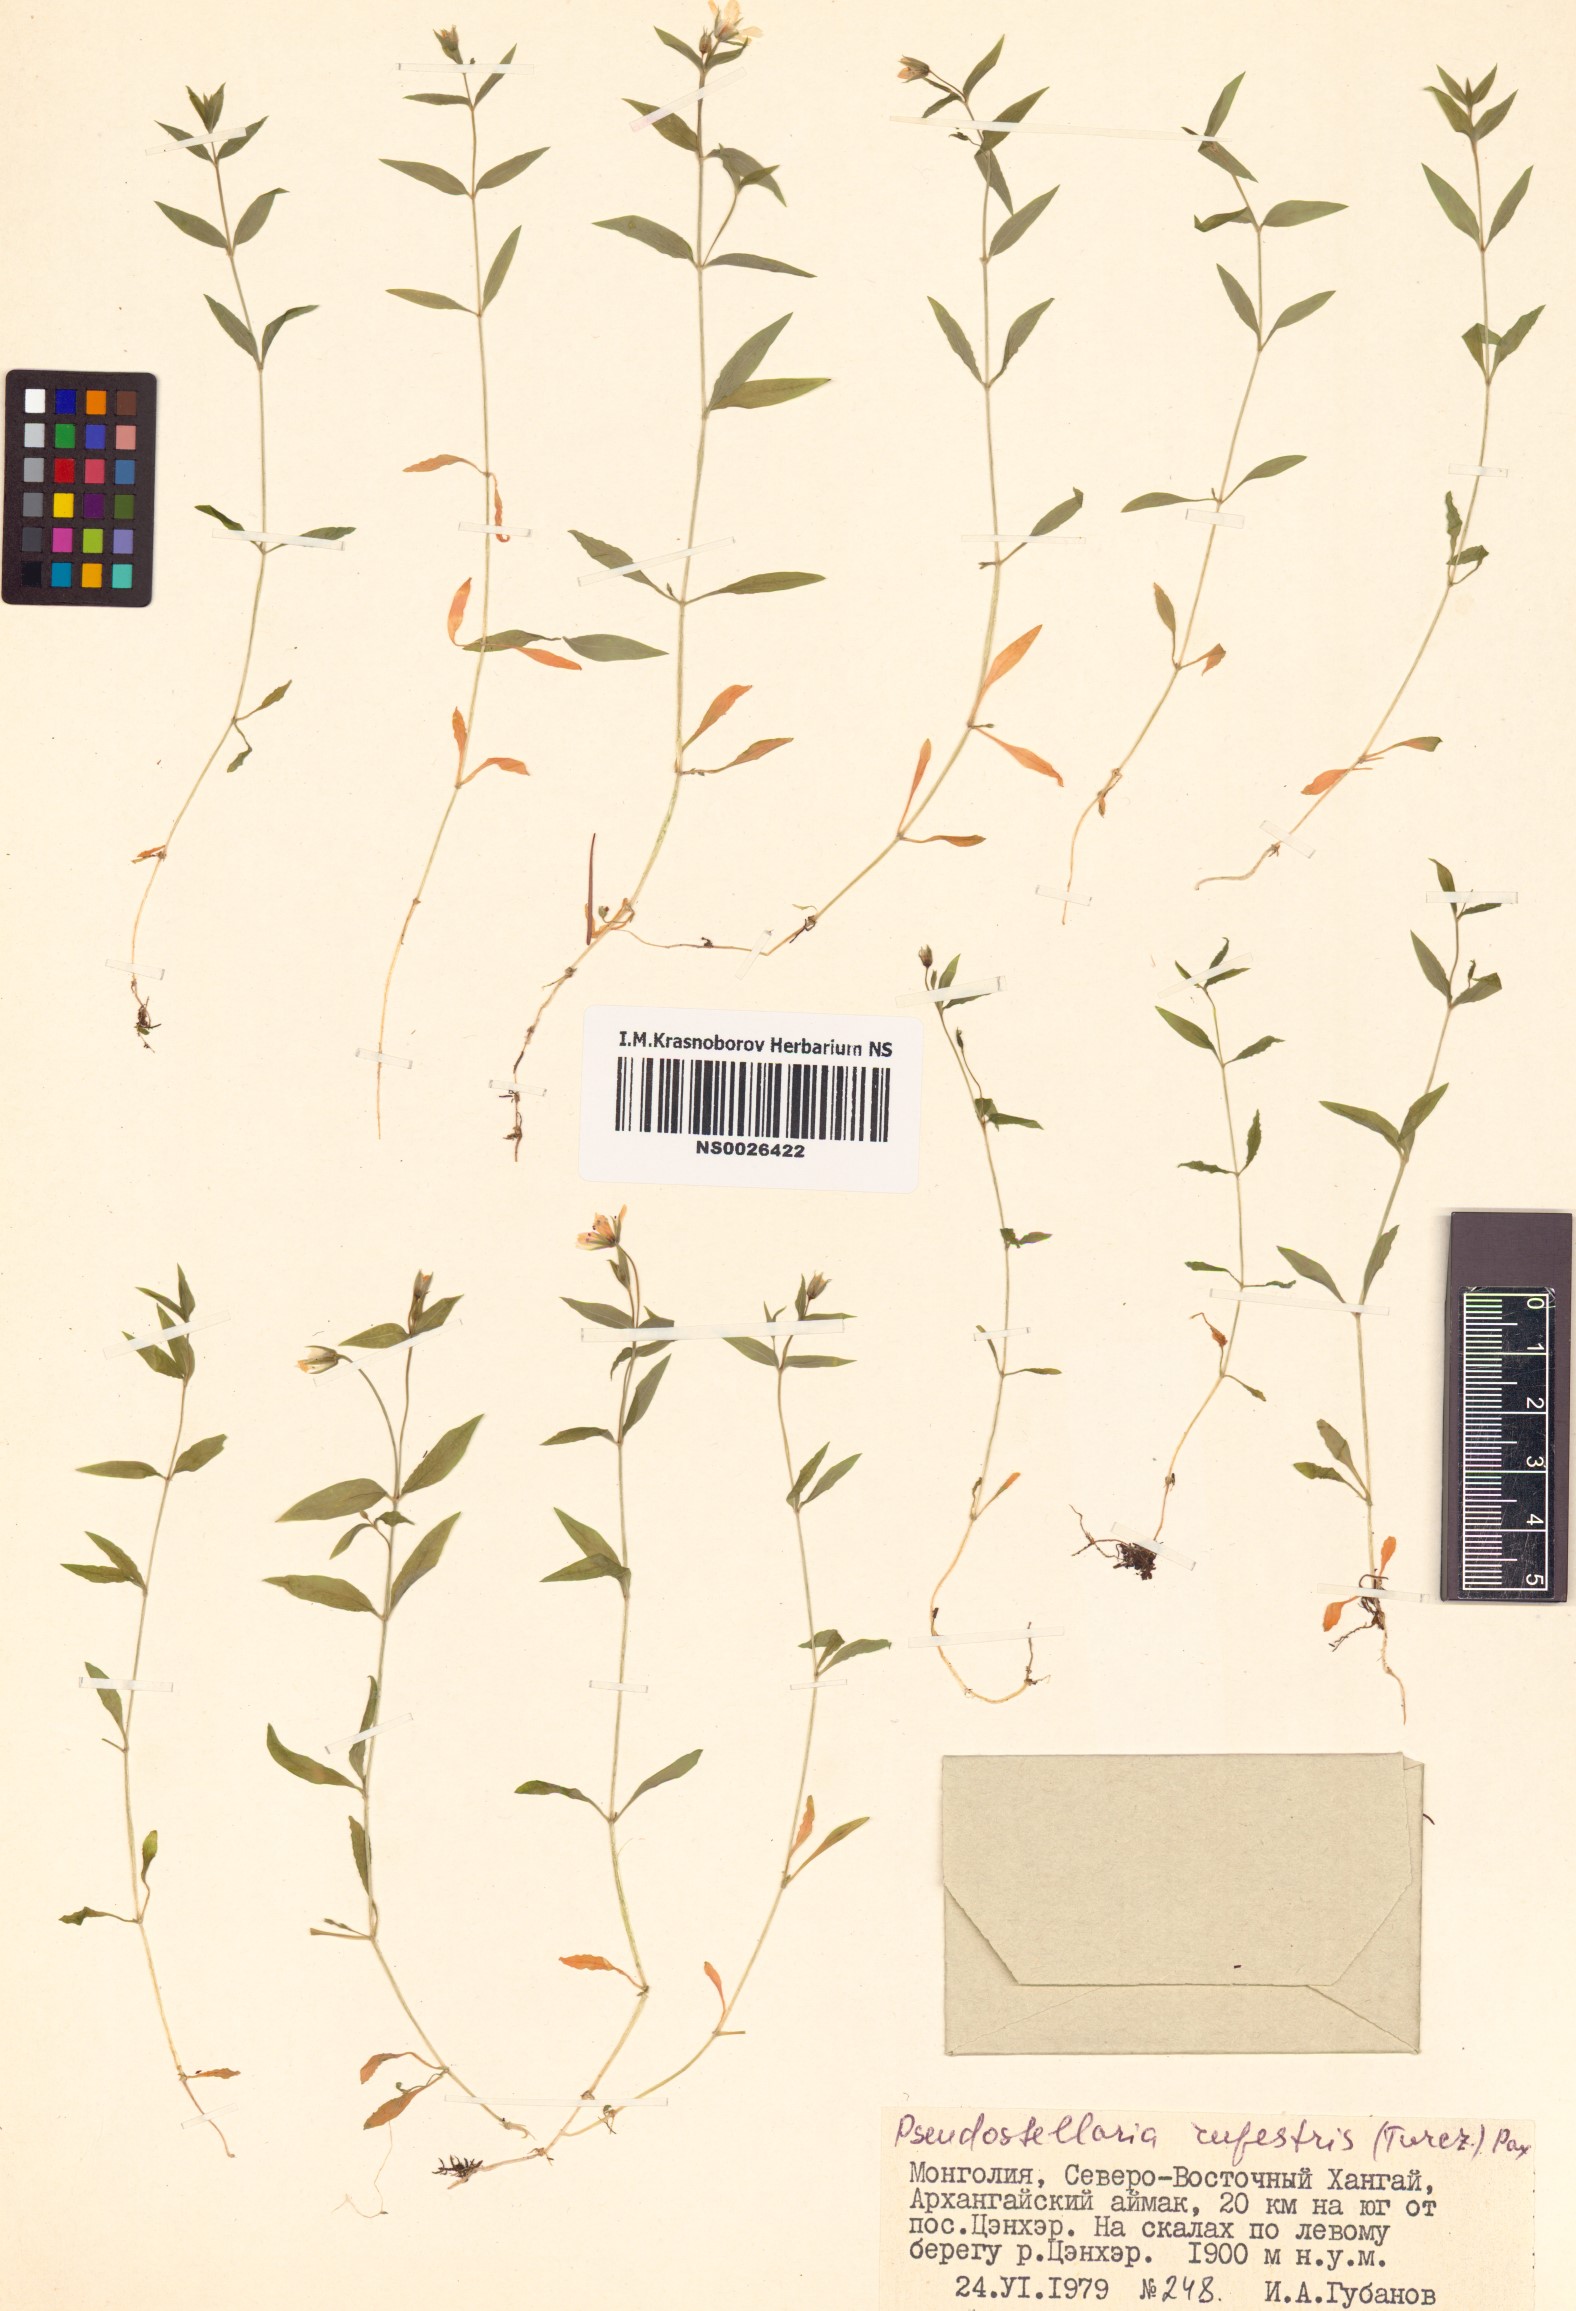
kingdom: Plantae
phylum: Tracheophyta
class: Magnoliopsida
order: Caryophyllales
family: Caryophyllaceae
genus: Pseudostellaria
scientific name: Pseudostellaria rupestris
